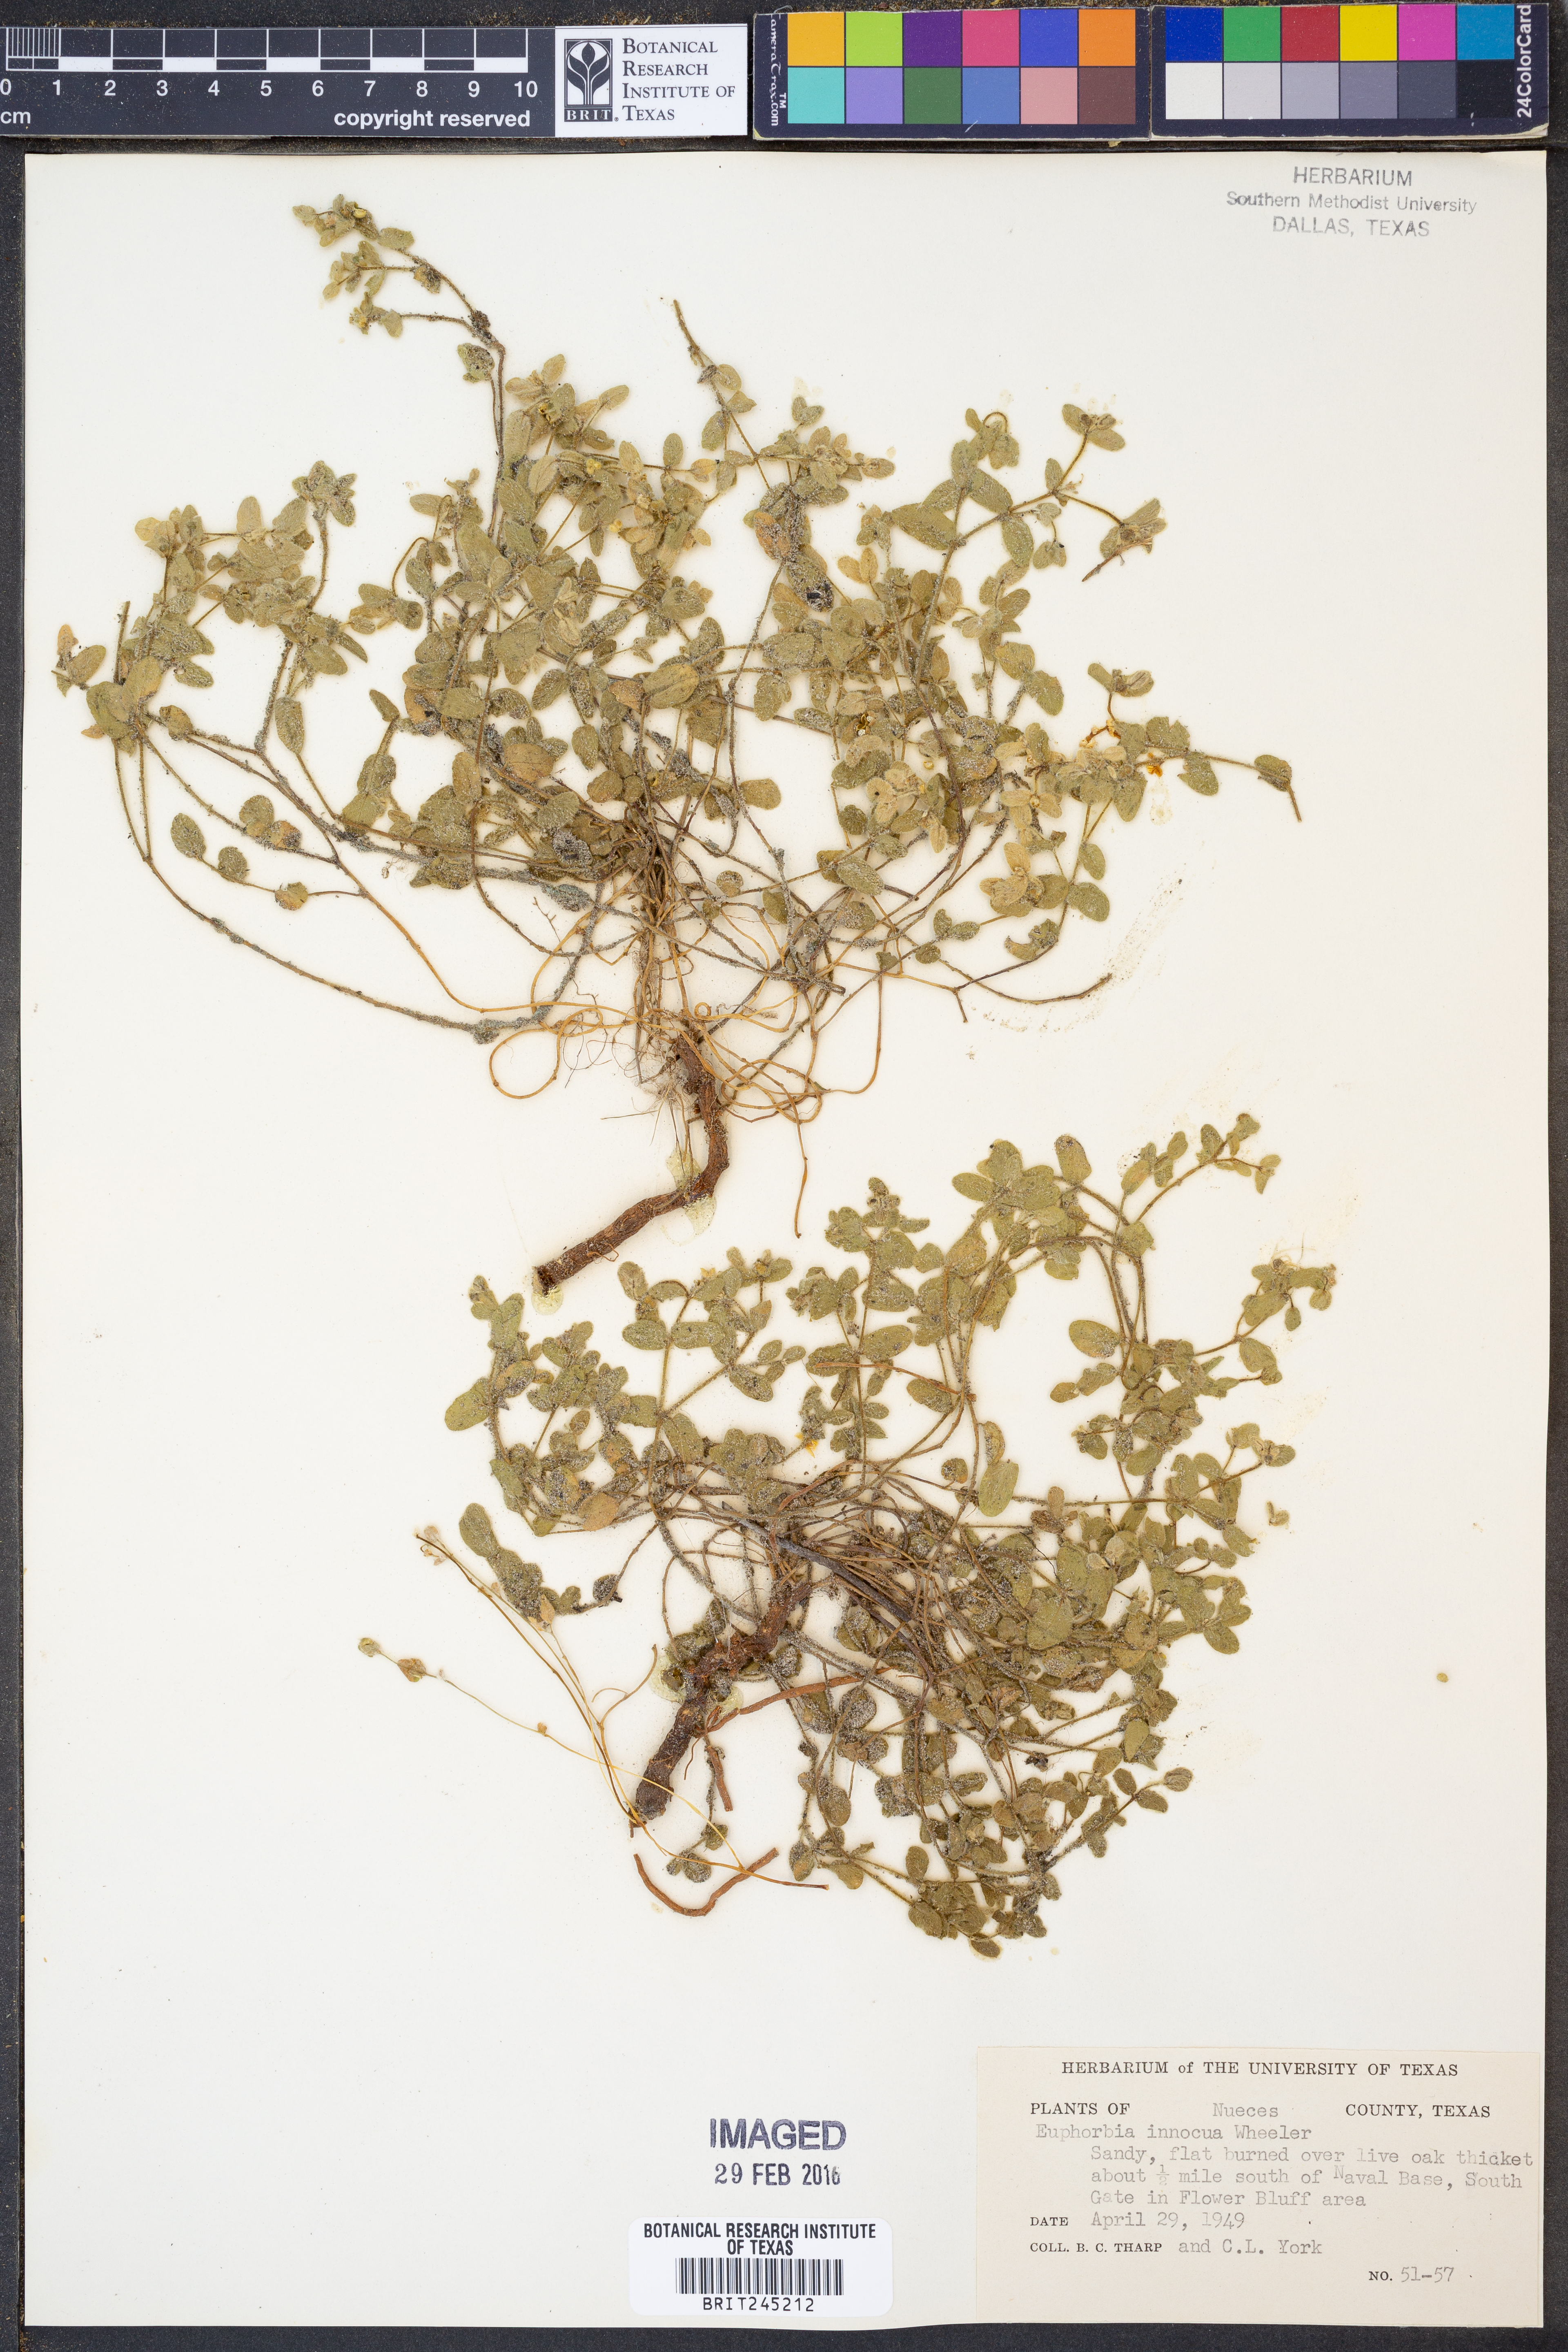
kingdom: Plantae
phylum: Tracheophyta
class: Magnoliopsida
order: Malpighiales
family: Euphorbiaceae
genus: Euphorbia
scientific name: Euphorbia innocua
